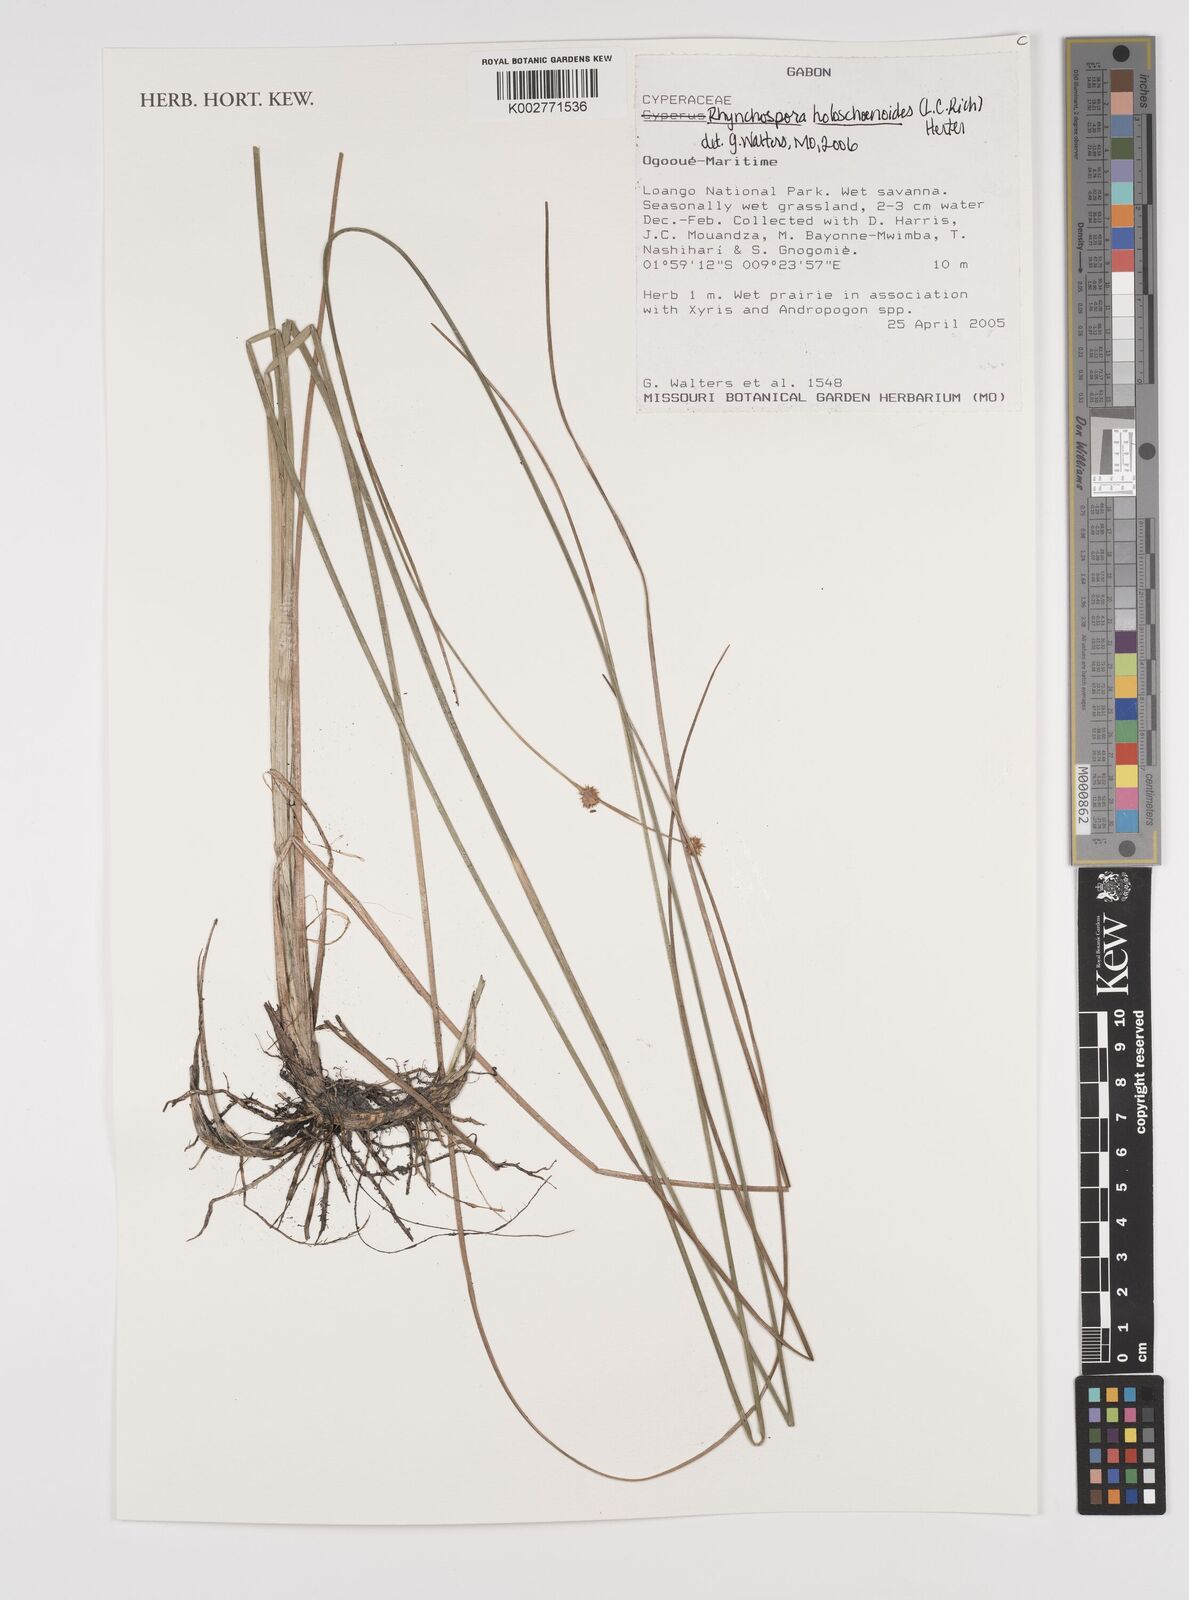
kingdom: Plantae
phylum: Tracheophyta
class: Liliopsida
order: Poales
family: Cyperaceae
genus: Rhynchospora
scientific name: Rhynchospora holoschoenoides
